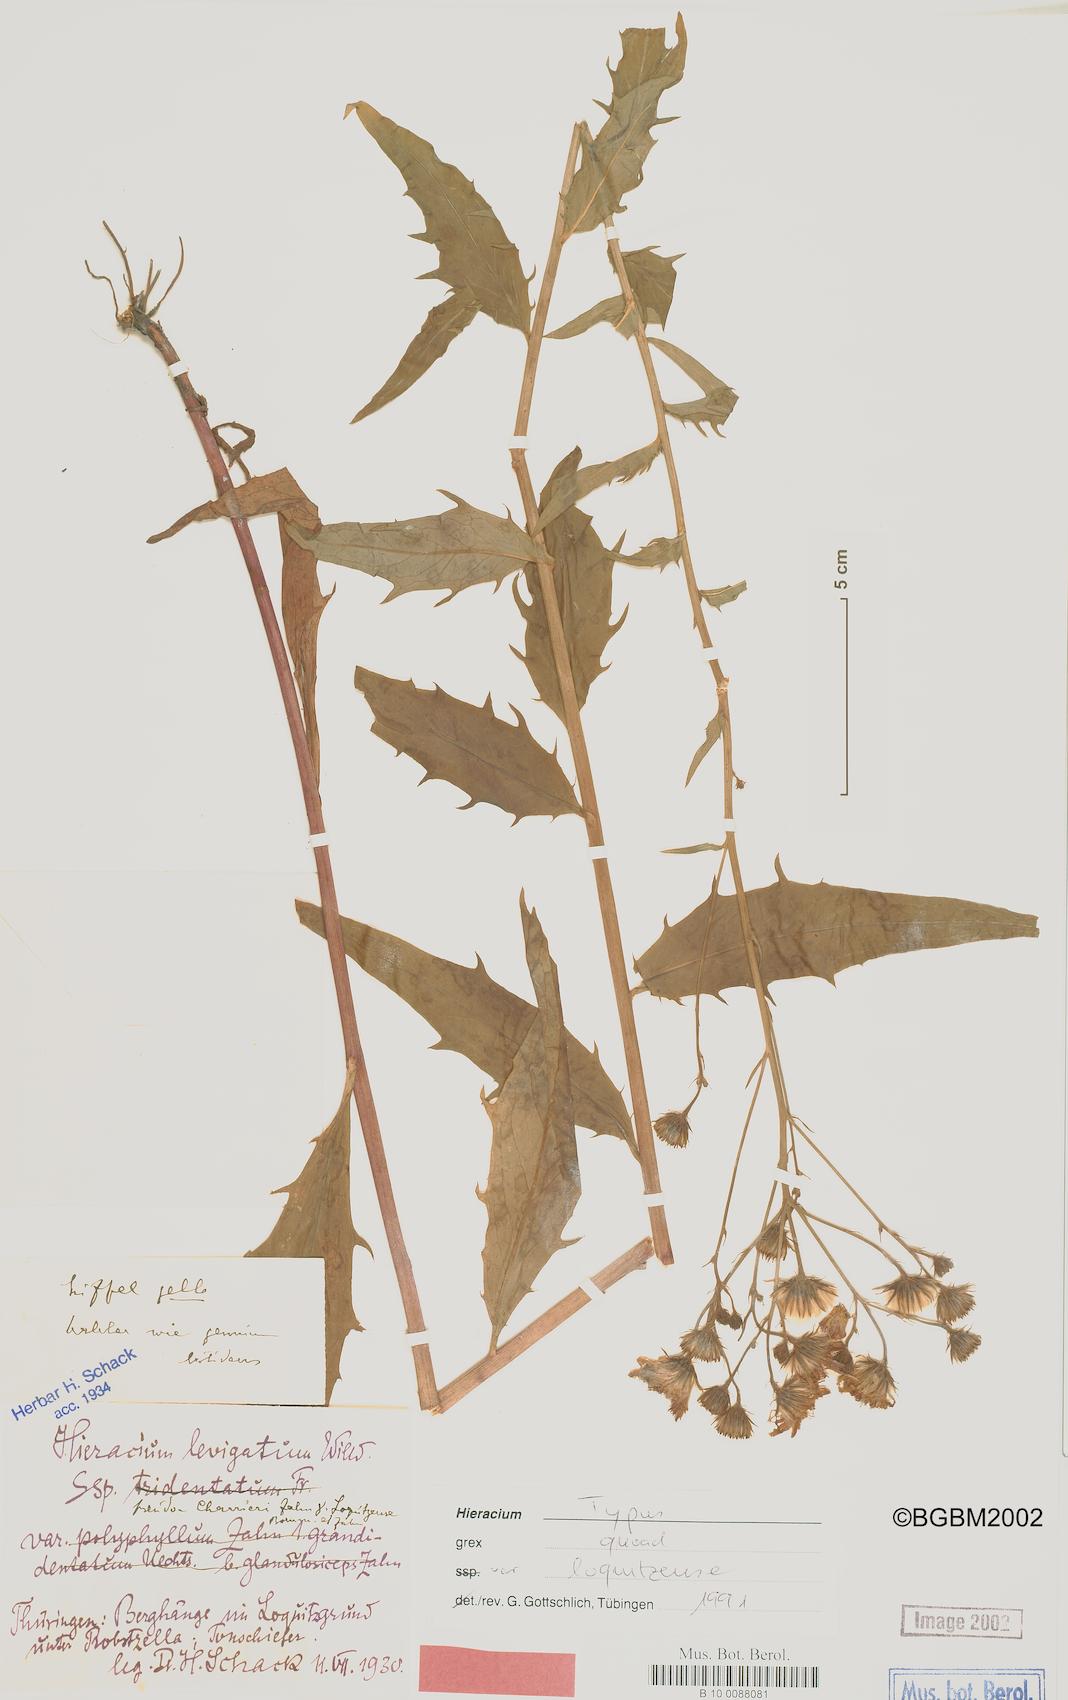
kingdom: Plantae
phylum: Tracheophyta
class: Magnoliopsida
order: Asterales
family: Asteraceae
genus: Hieracium
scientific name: Hieracium laevigatum
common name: Smooth hawkweed
